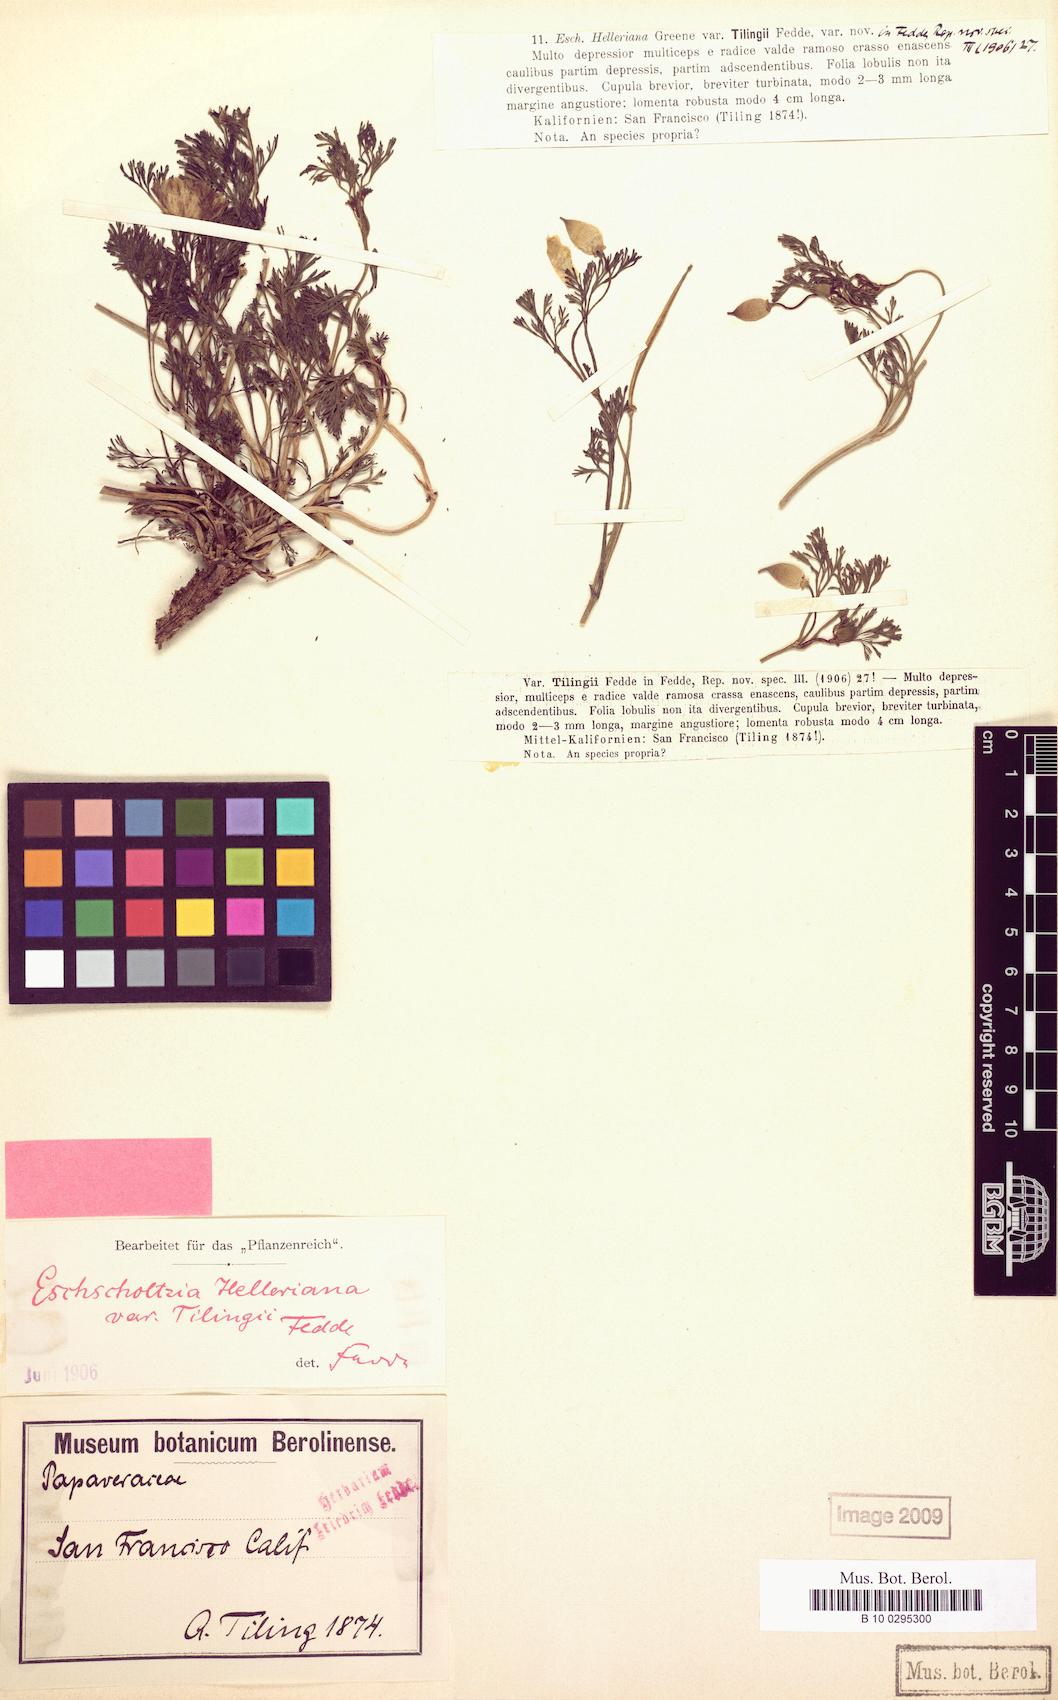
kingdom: Plantae
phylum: Tracheophyta
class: Magnoliopsida
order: Ranunculales
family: Papaveraceae
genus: Eschscholzia
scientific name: Eschscholzia californica
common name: California poppy
